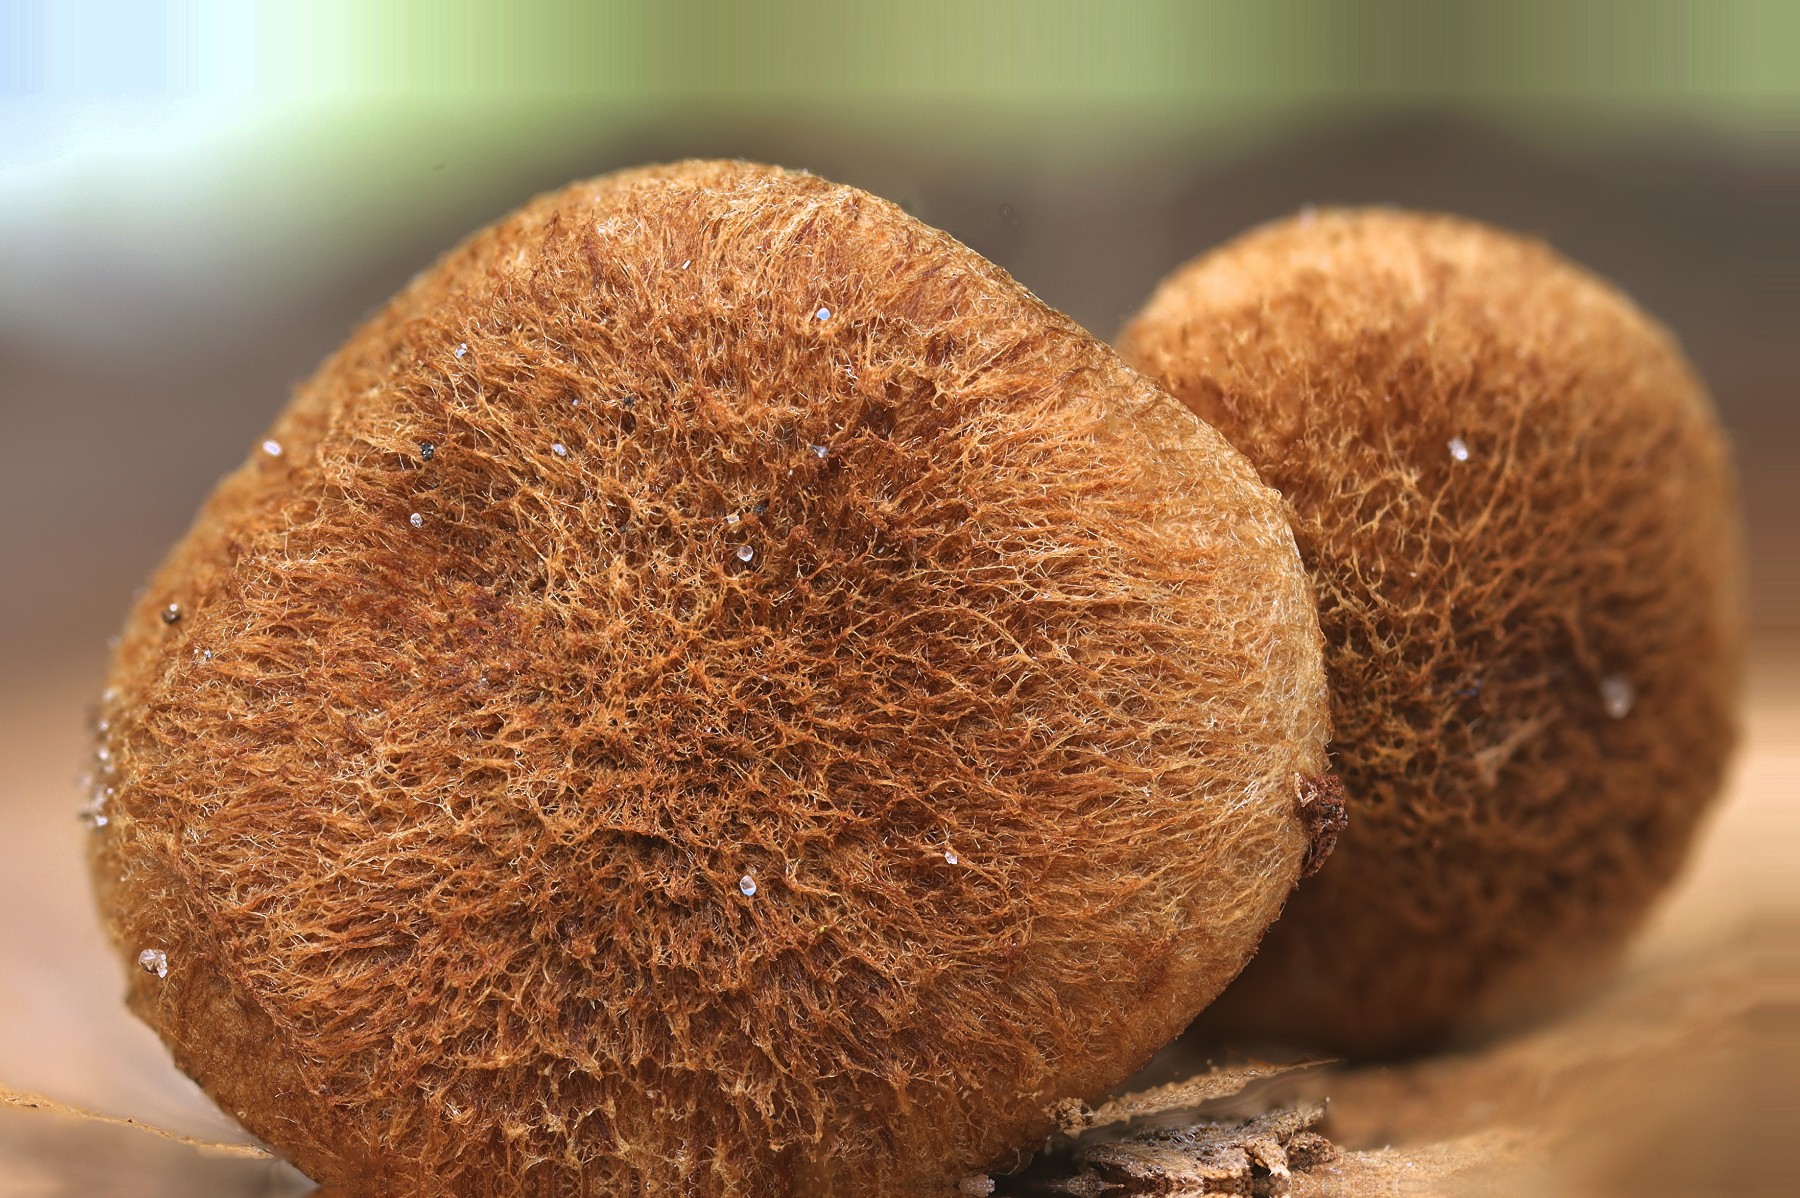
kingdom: Fungi
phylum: Basidiomycota
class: Agaricomycetes
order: Agaricales
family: Inocybaceae
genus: Inocybe
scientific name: Inocybe dulcamara
